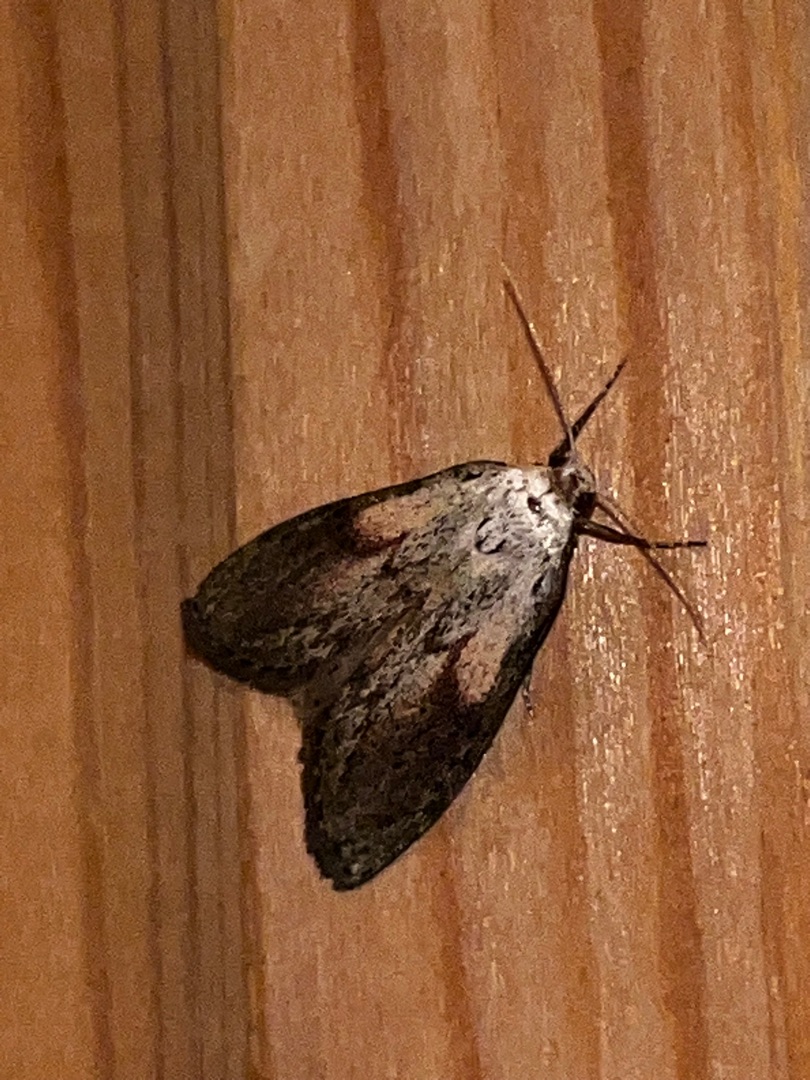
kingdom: Animalia
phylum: Arthropoda
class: Insecta
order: Lepidoptera
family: Pyralidae
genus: Aphomia
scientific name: Aphomia sociella
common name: Humlevoksmøl
